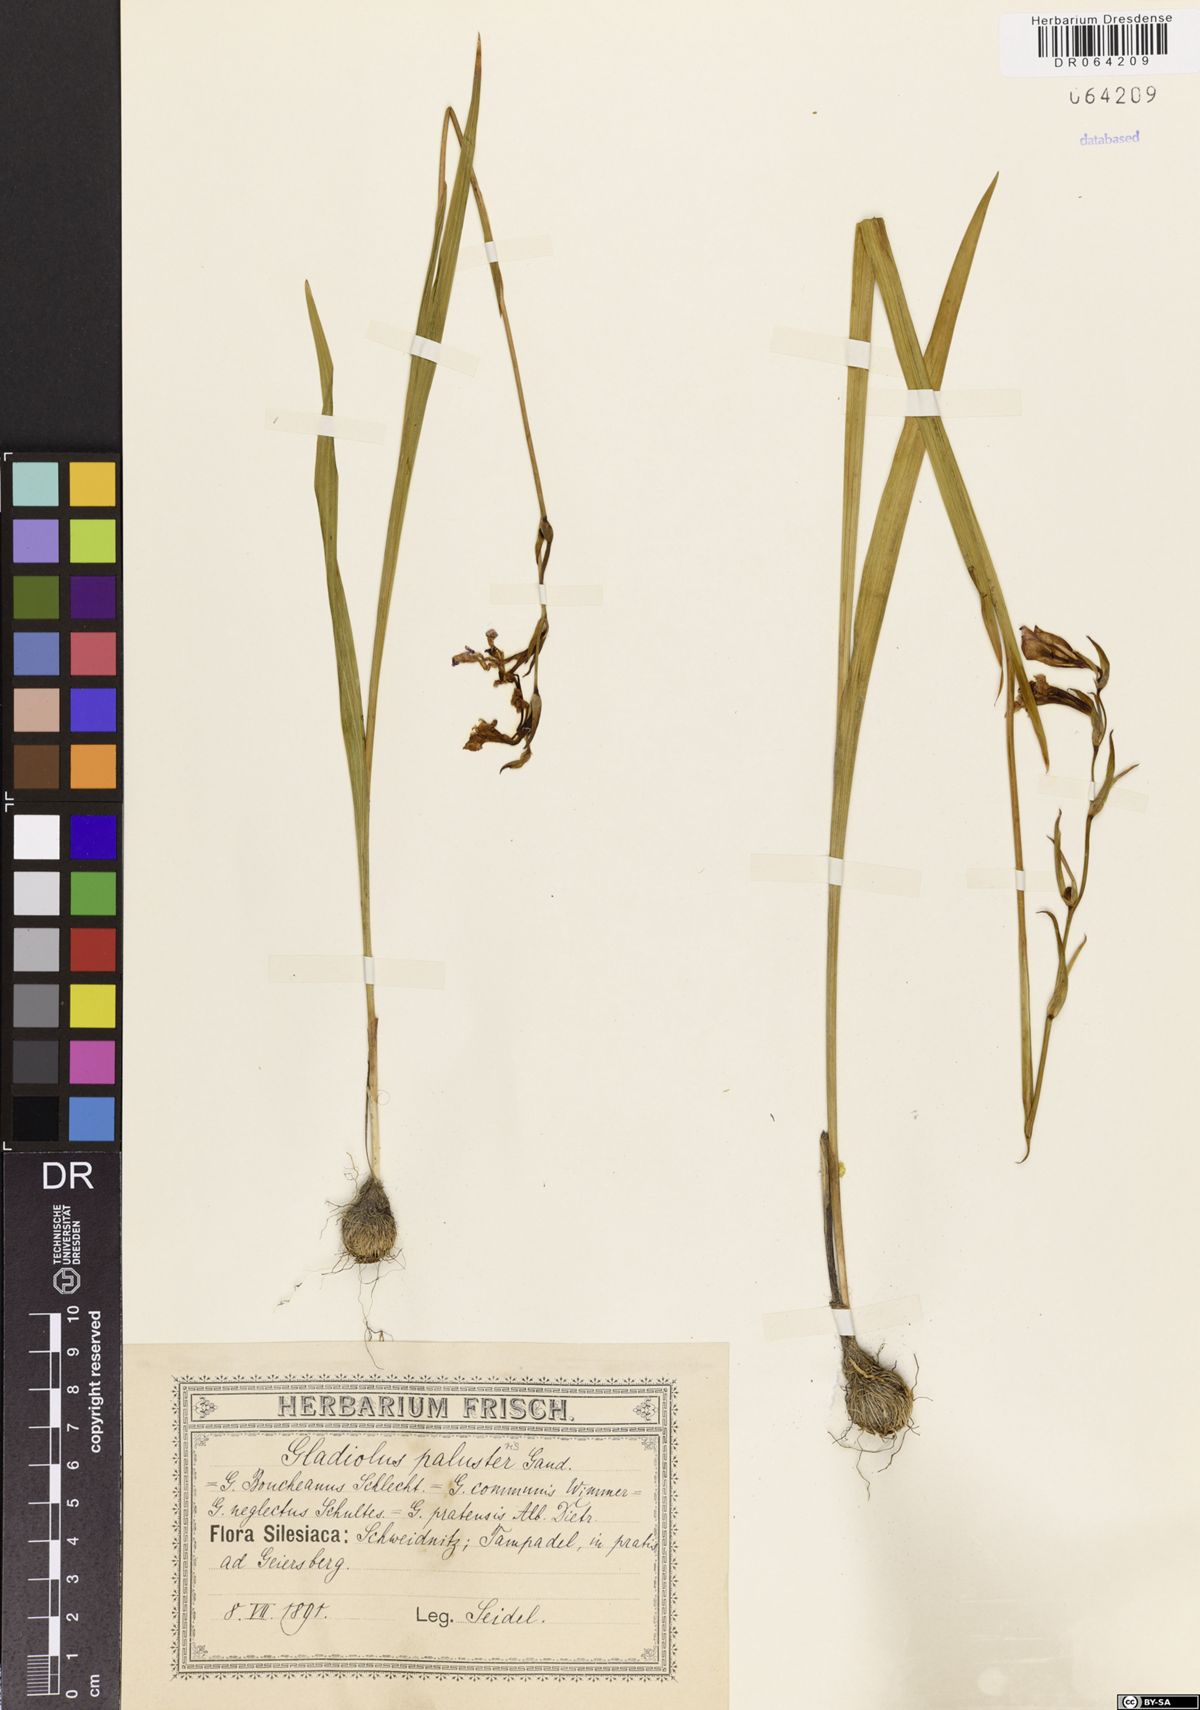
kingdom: Plantae
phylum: Tracheophyta
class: Liliopsida
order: Asparagales
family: Iridaceae
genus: Gladiolus
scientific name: Gladiolus palustris
